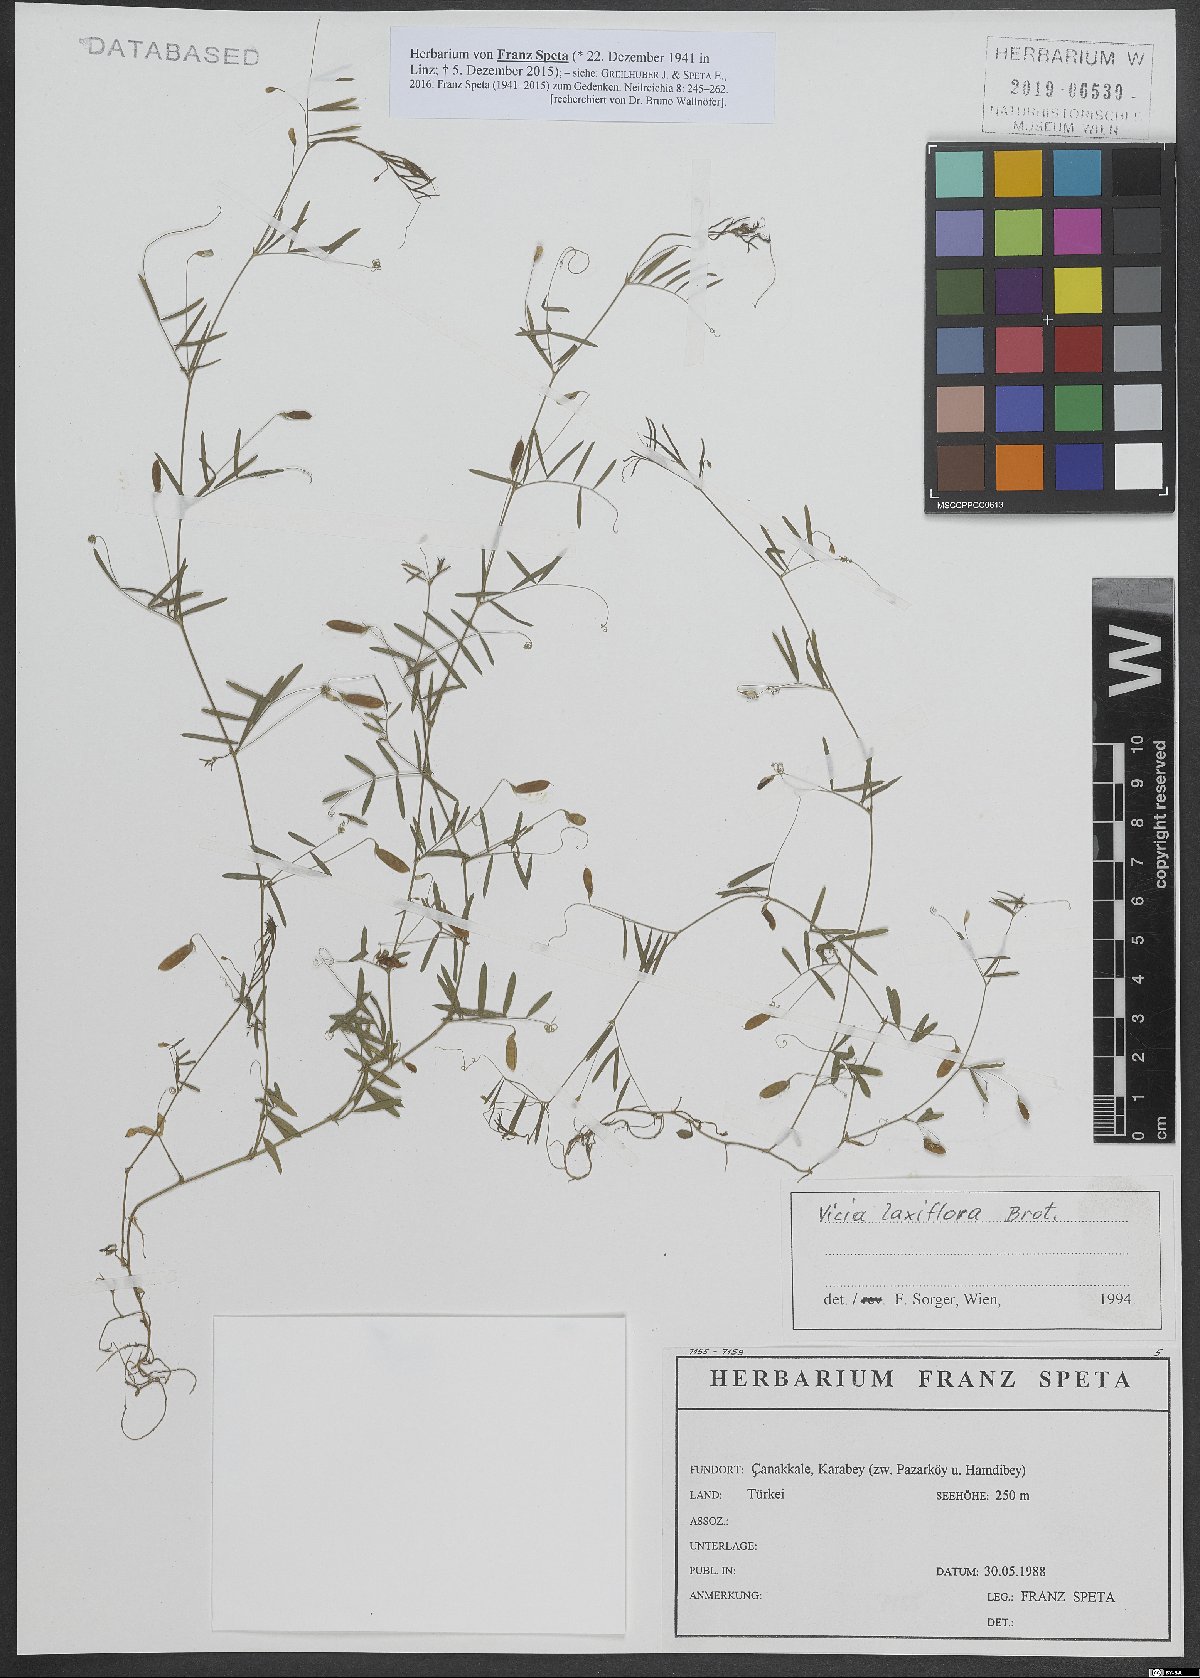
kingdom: Plantae
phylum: Tracheophyta
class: Magnoliopsida
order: Fabales
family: Fabaceae
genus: Vicia
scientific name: Vicia parviflora
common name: Slender tare
